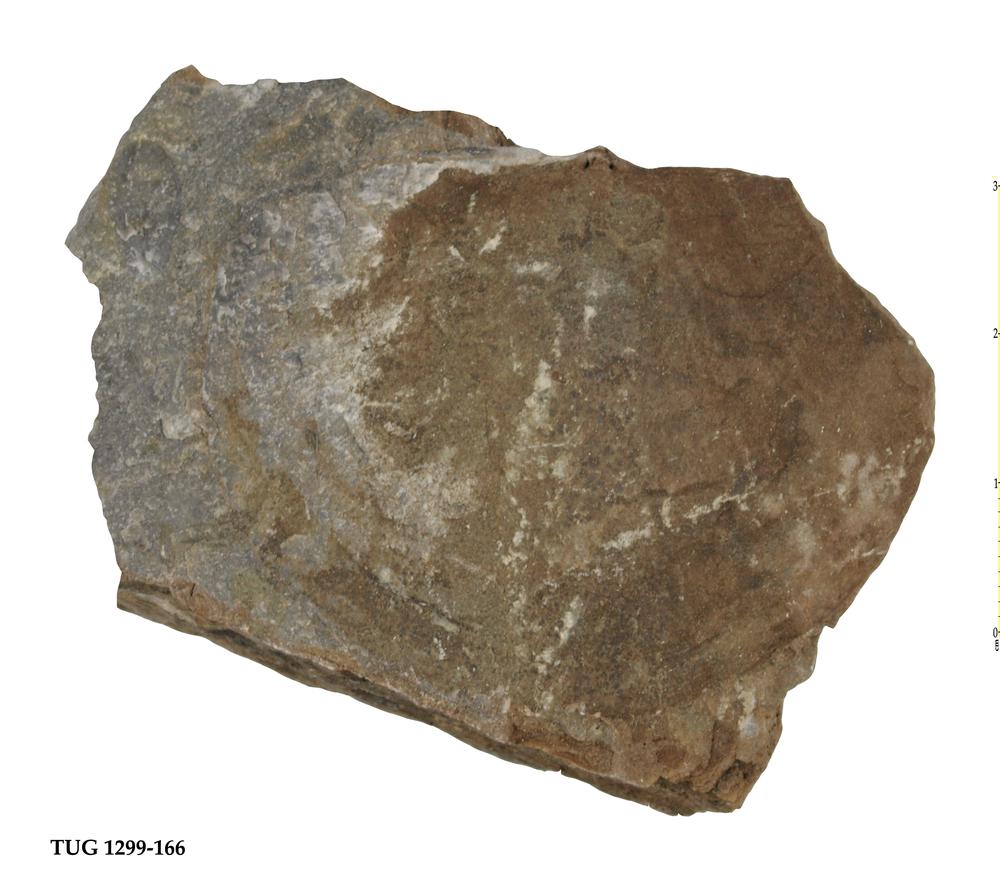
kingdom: Animalia
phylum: Brachiopoda
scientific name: Brachiopoda
